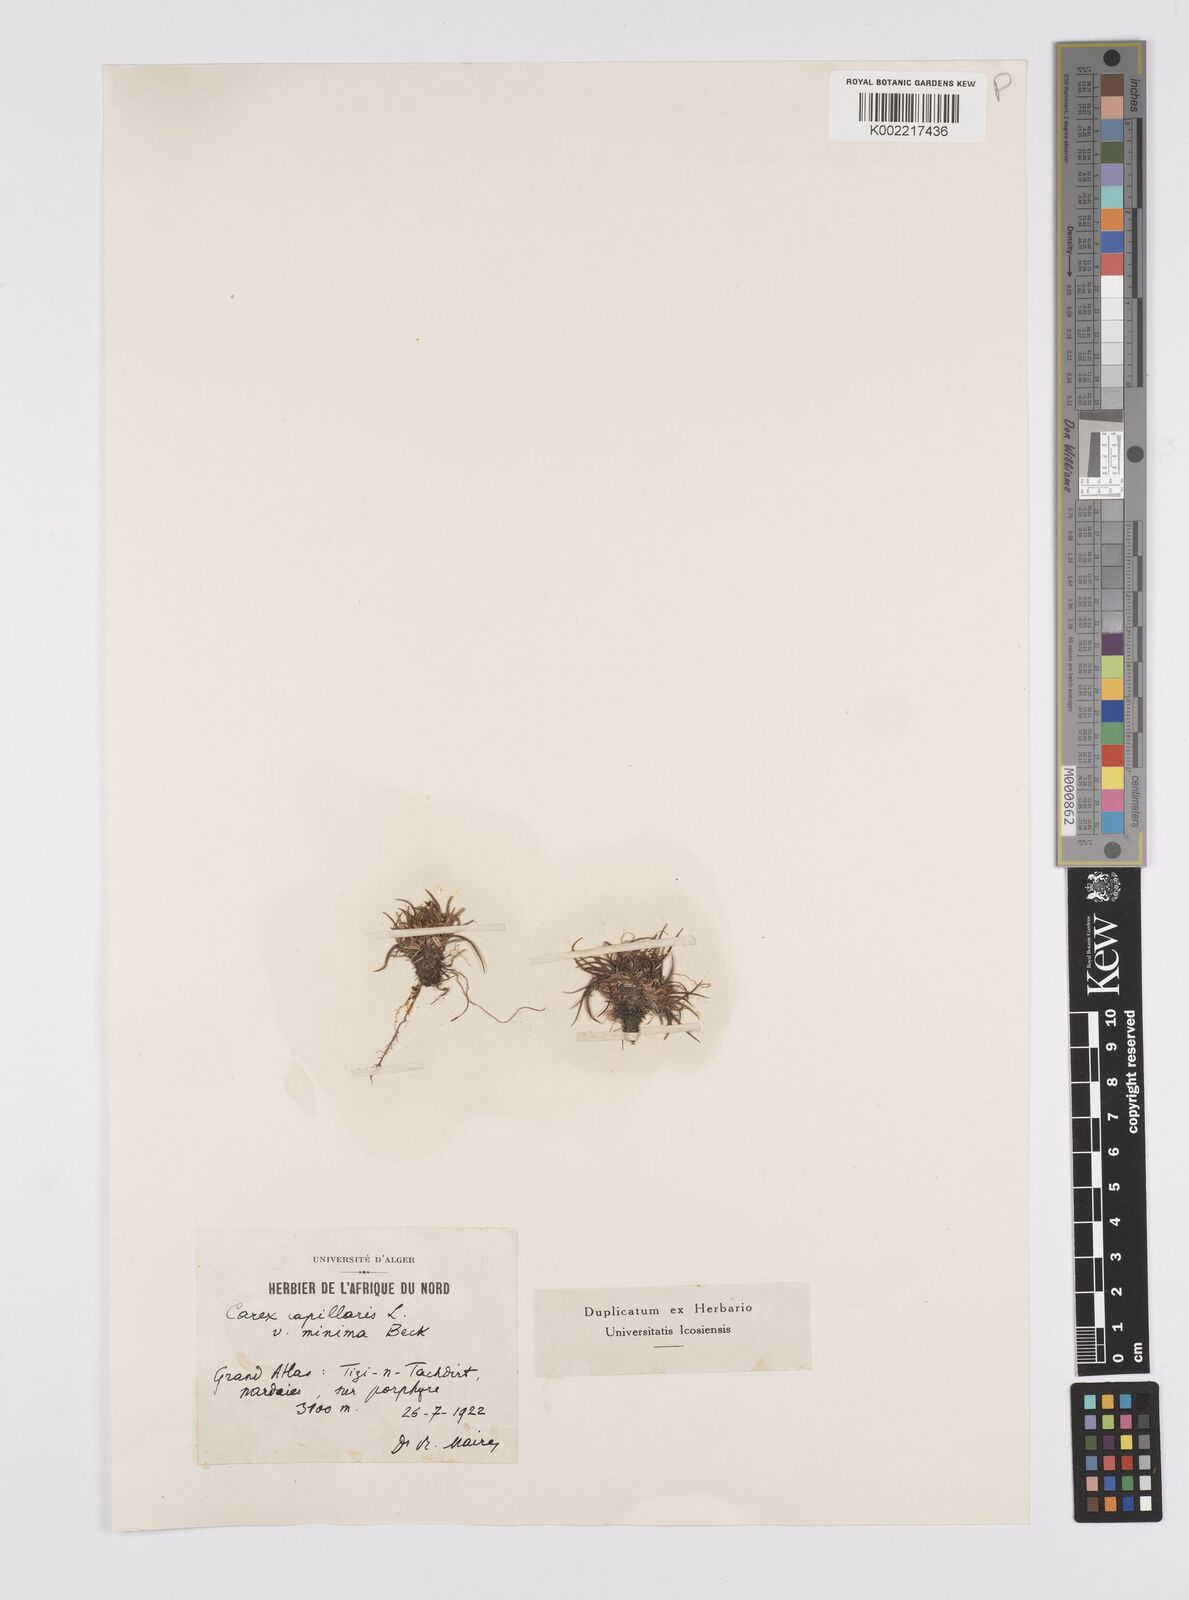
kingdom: Plantae
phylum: Tracheophyta
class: Liliopsida
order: Poales
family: Cyperaceae
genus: Carex
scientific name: Carex capillaris
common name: Hair sedge
